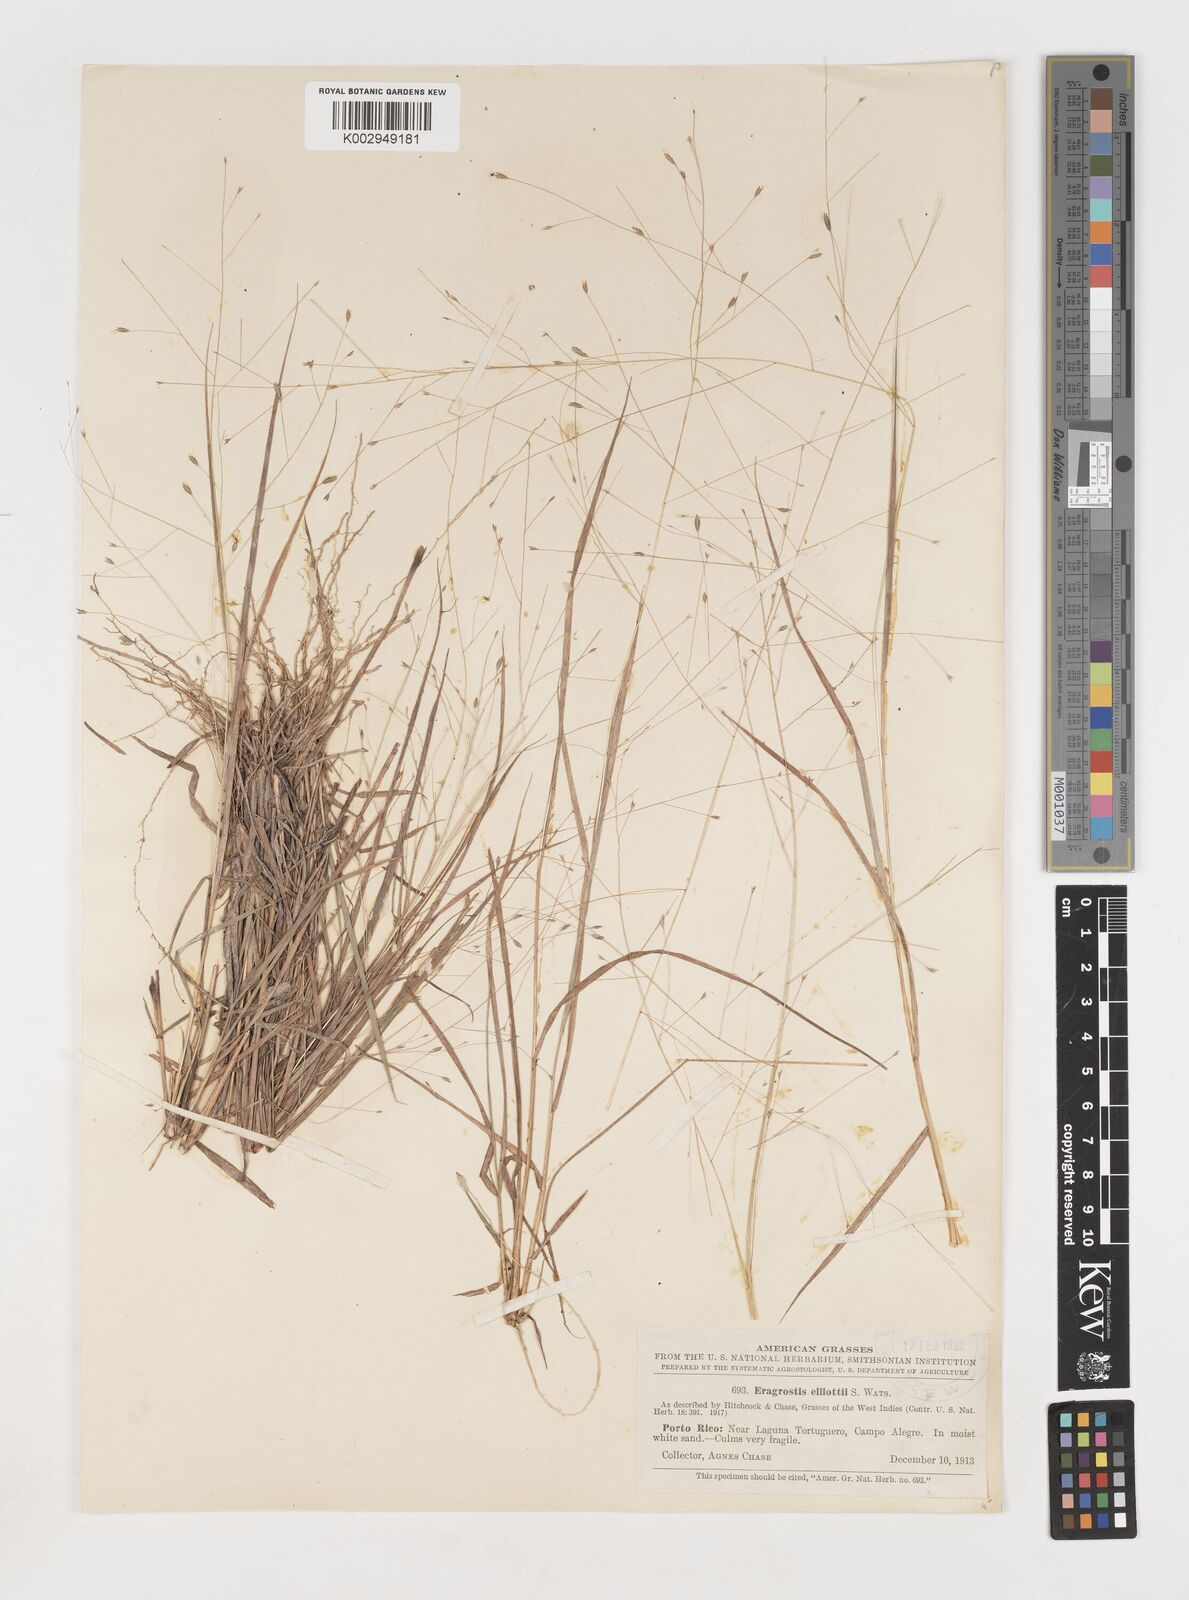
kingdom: Plantae
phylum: Tracheophyta
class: Liliopsida
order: Poales
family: Poaceae
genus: Eragrostis
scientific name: Eragrostis elliottii
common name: Elliott's love grass
